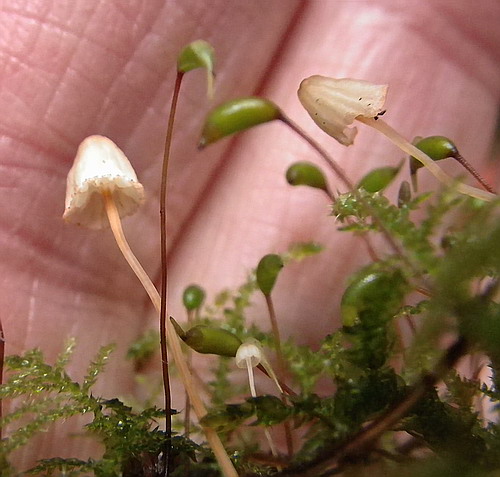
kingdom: Fungi
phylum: Basidiomycota
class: Agaricomycetes
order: Agaricales
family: Mycenaceae
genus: Mycena
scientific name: Mycena pterigena
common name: bregne-huesvamp
